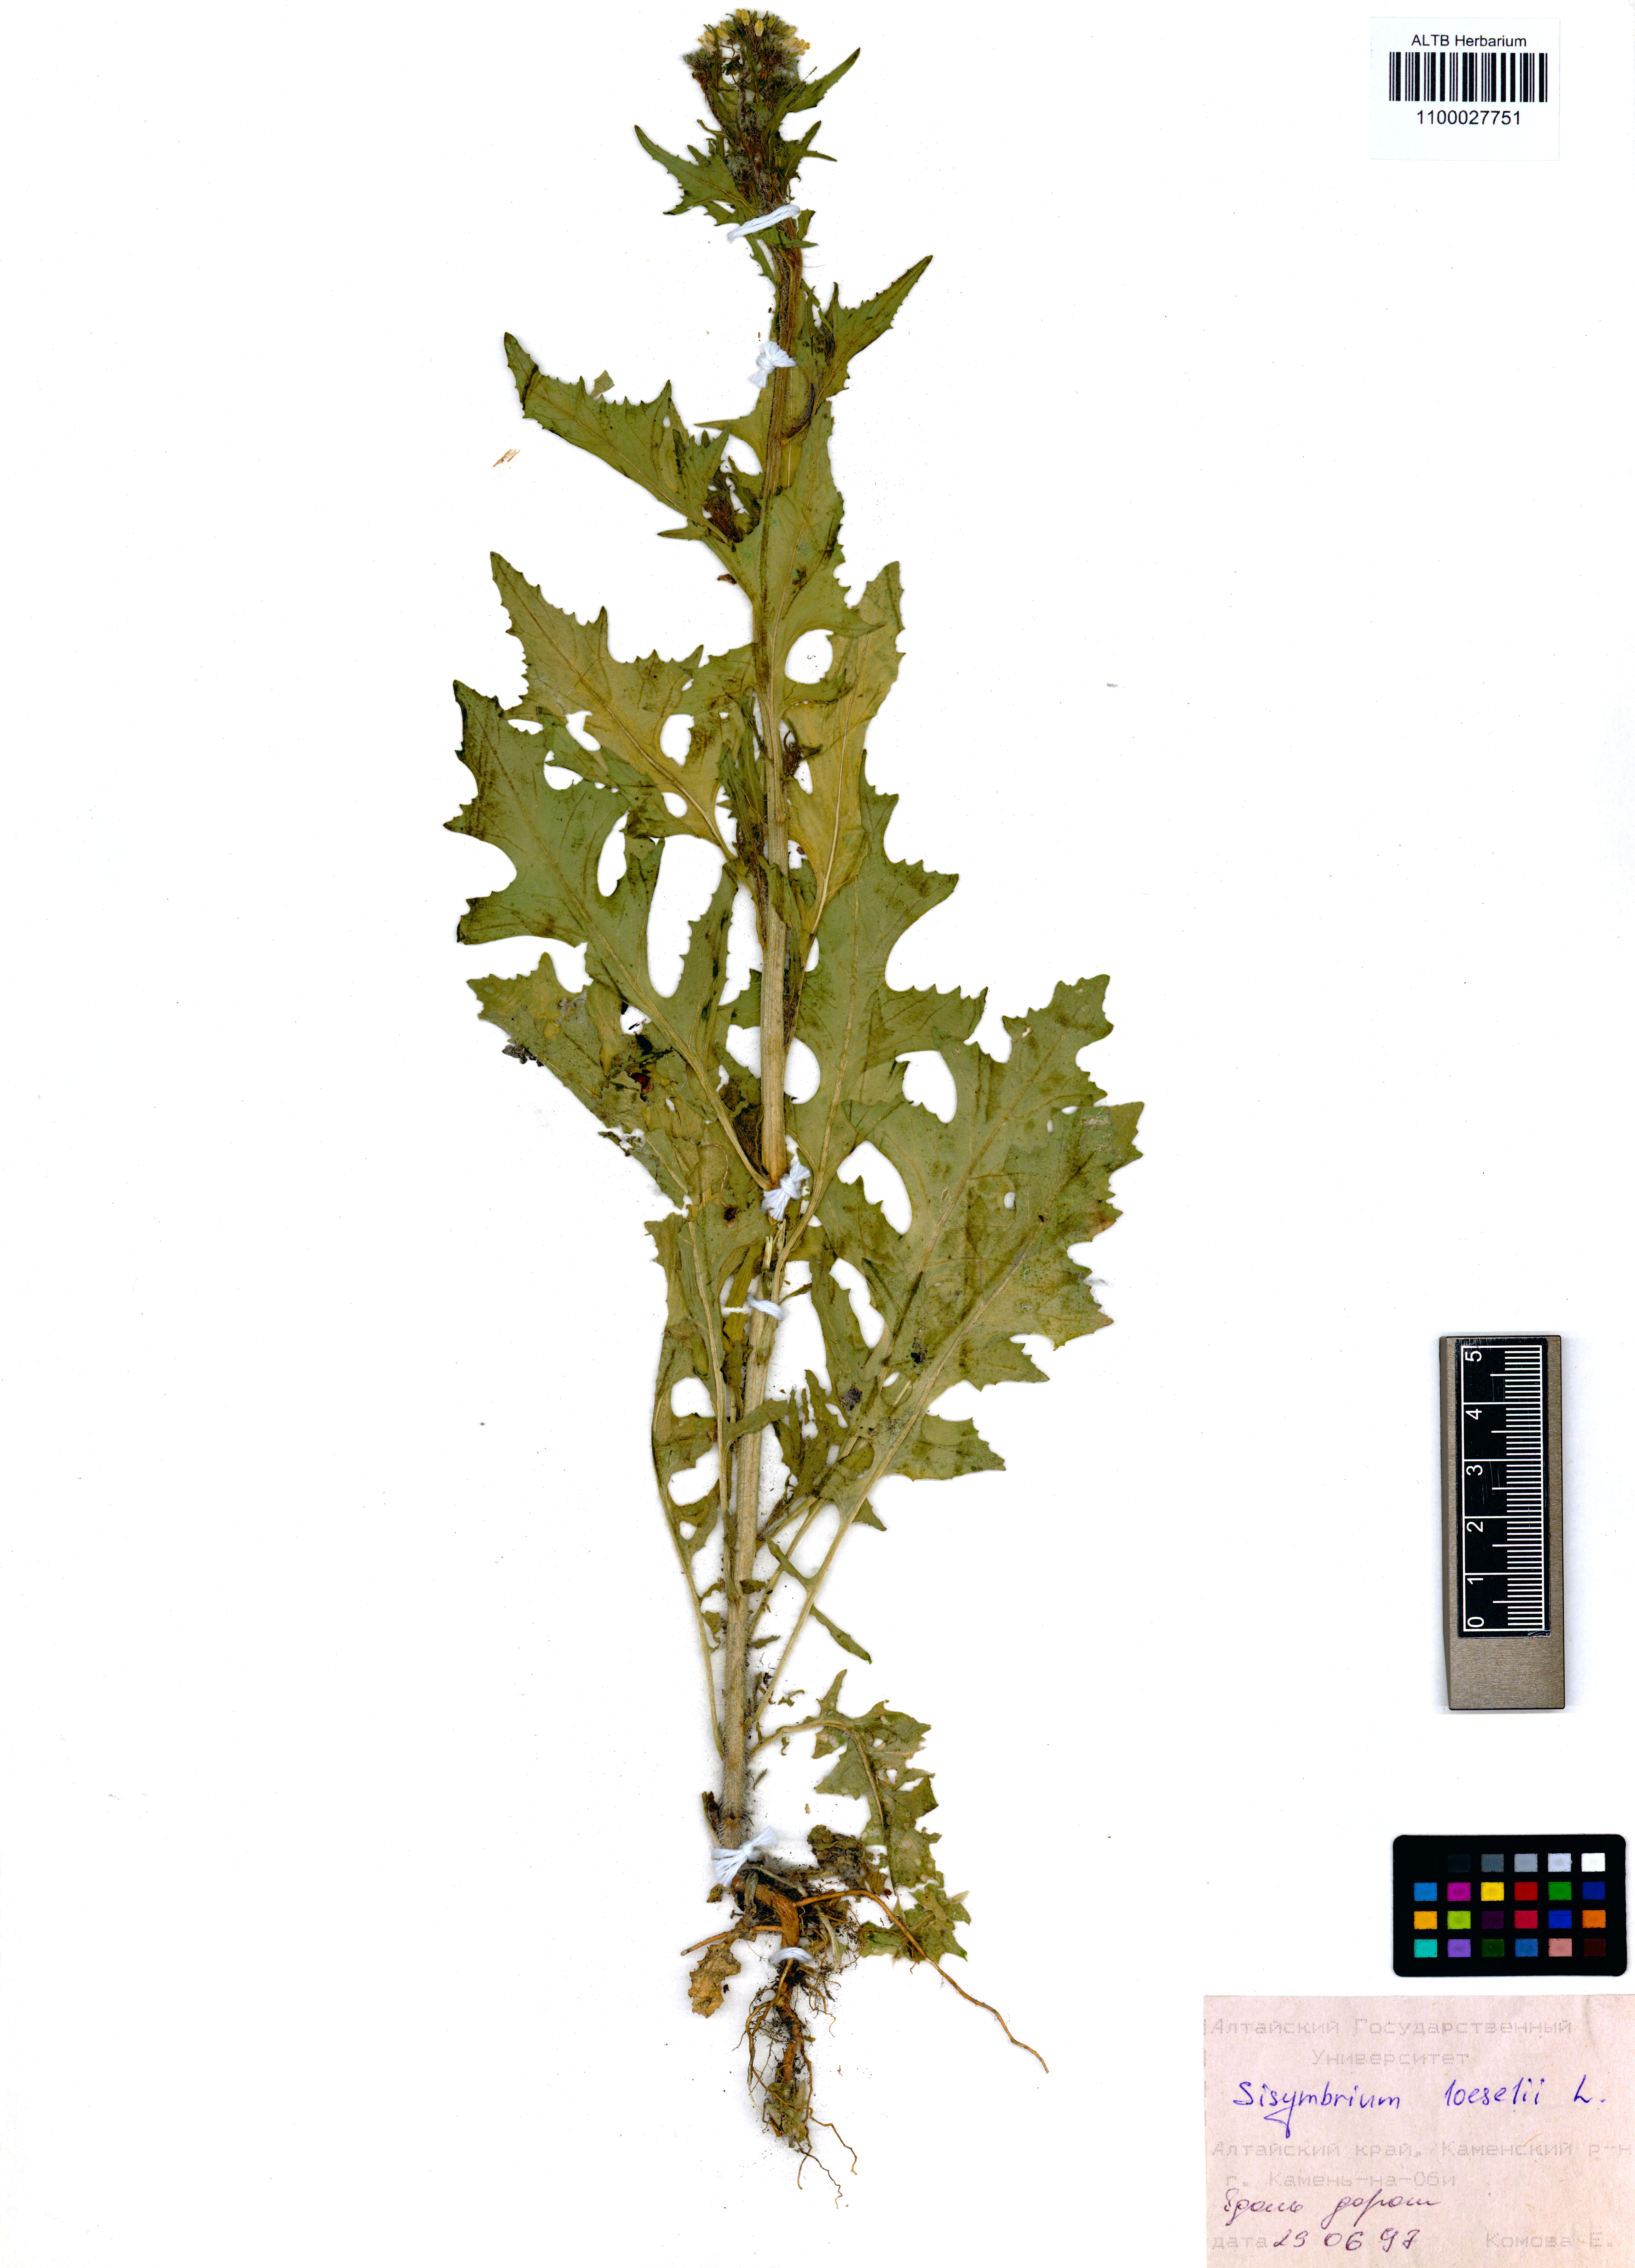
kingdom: Plantae
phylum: Tracheophyta
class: Magnoliopsida
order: Brassicales
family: Brassicaceae
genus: Sisymbrium
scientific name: Sisymbrium loeselii
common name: False london-rocket
